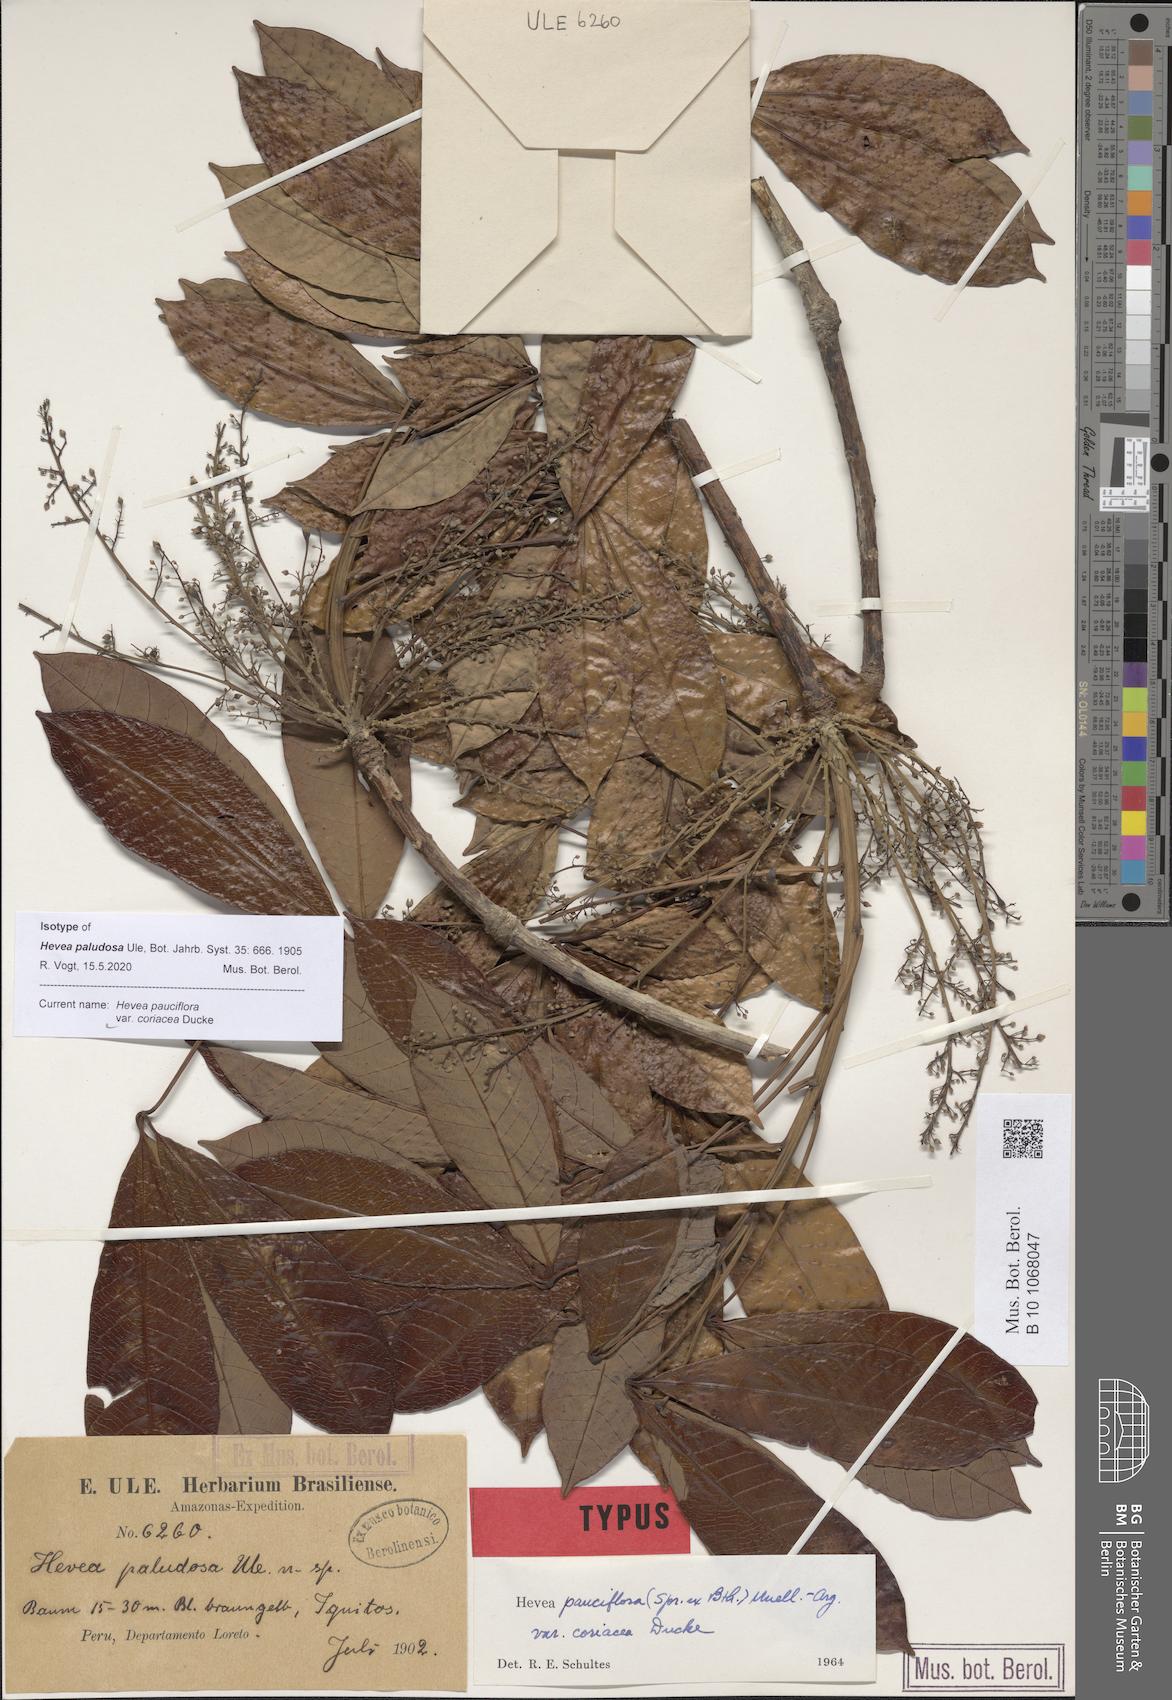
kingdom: Plantae
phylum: Tracheophyta
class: Magnoliopsida
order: Malpighiales
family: Euphorbiaceae
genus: Hevea
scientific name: Hevea pauciflora
